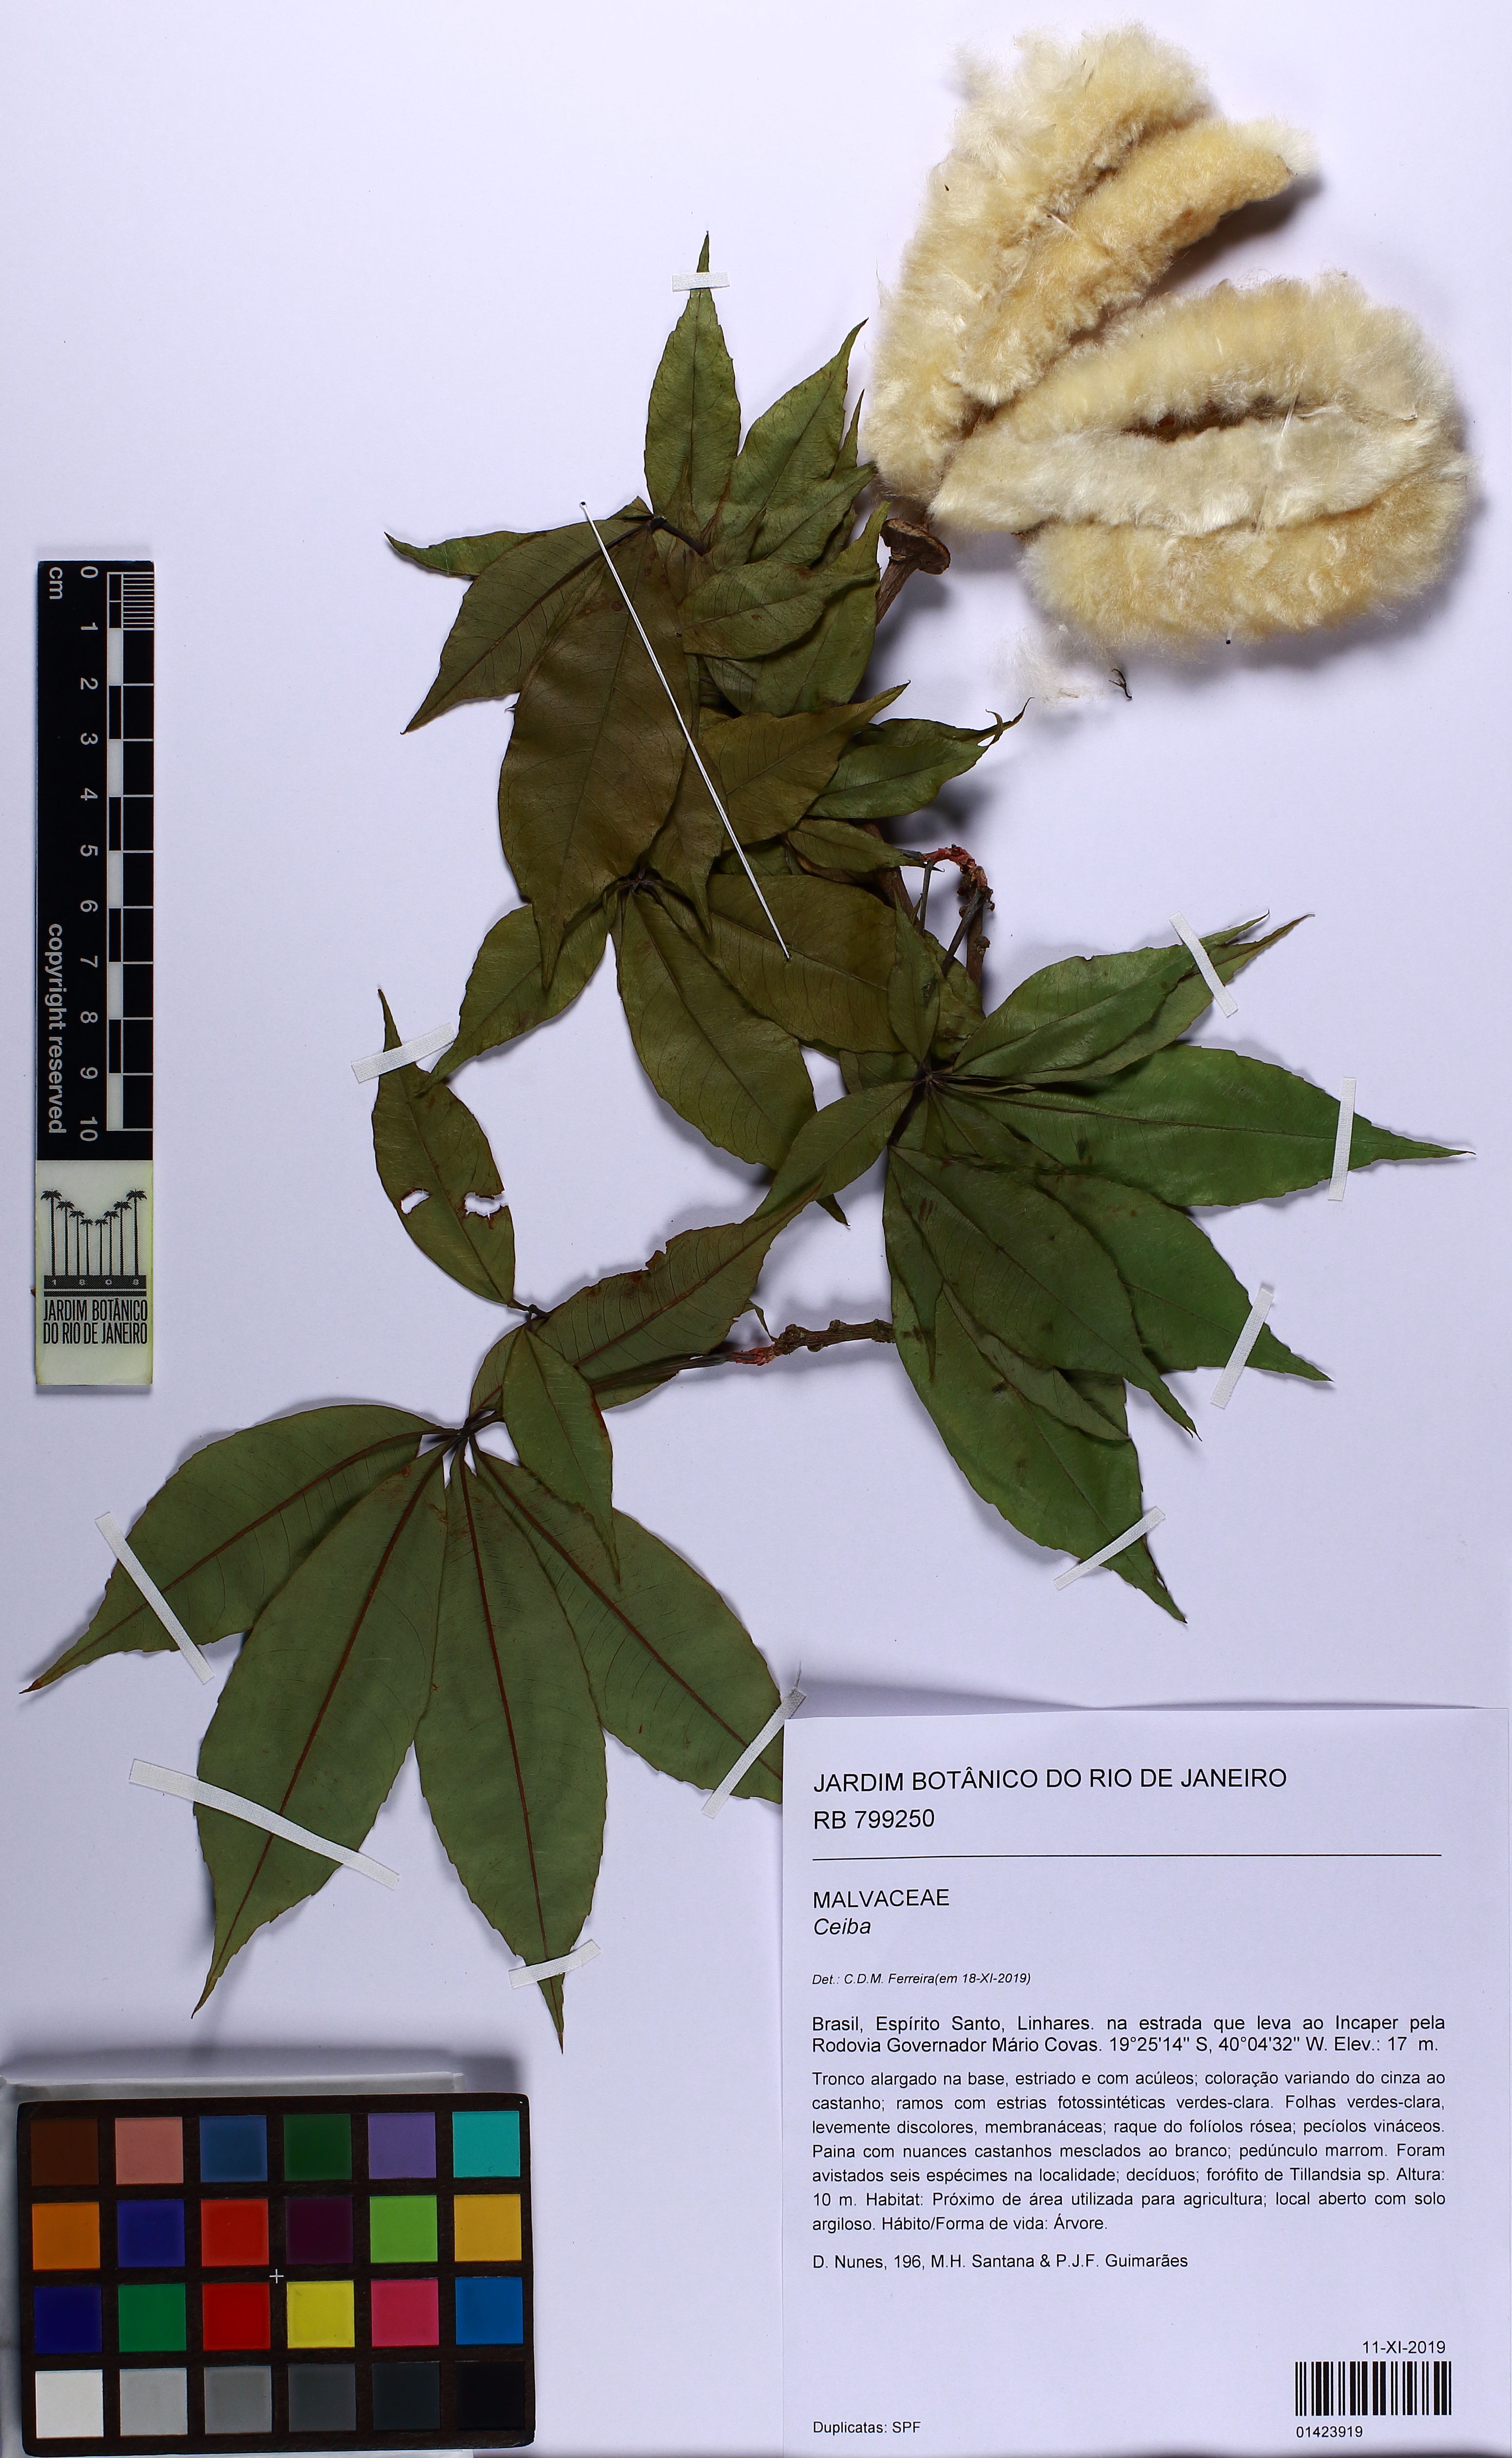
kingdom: Plantae
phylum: Tracheophyta
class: Magnoliopsida
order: Malvales
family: Malvaceae
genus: Ceiba
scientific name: Ceiba
